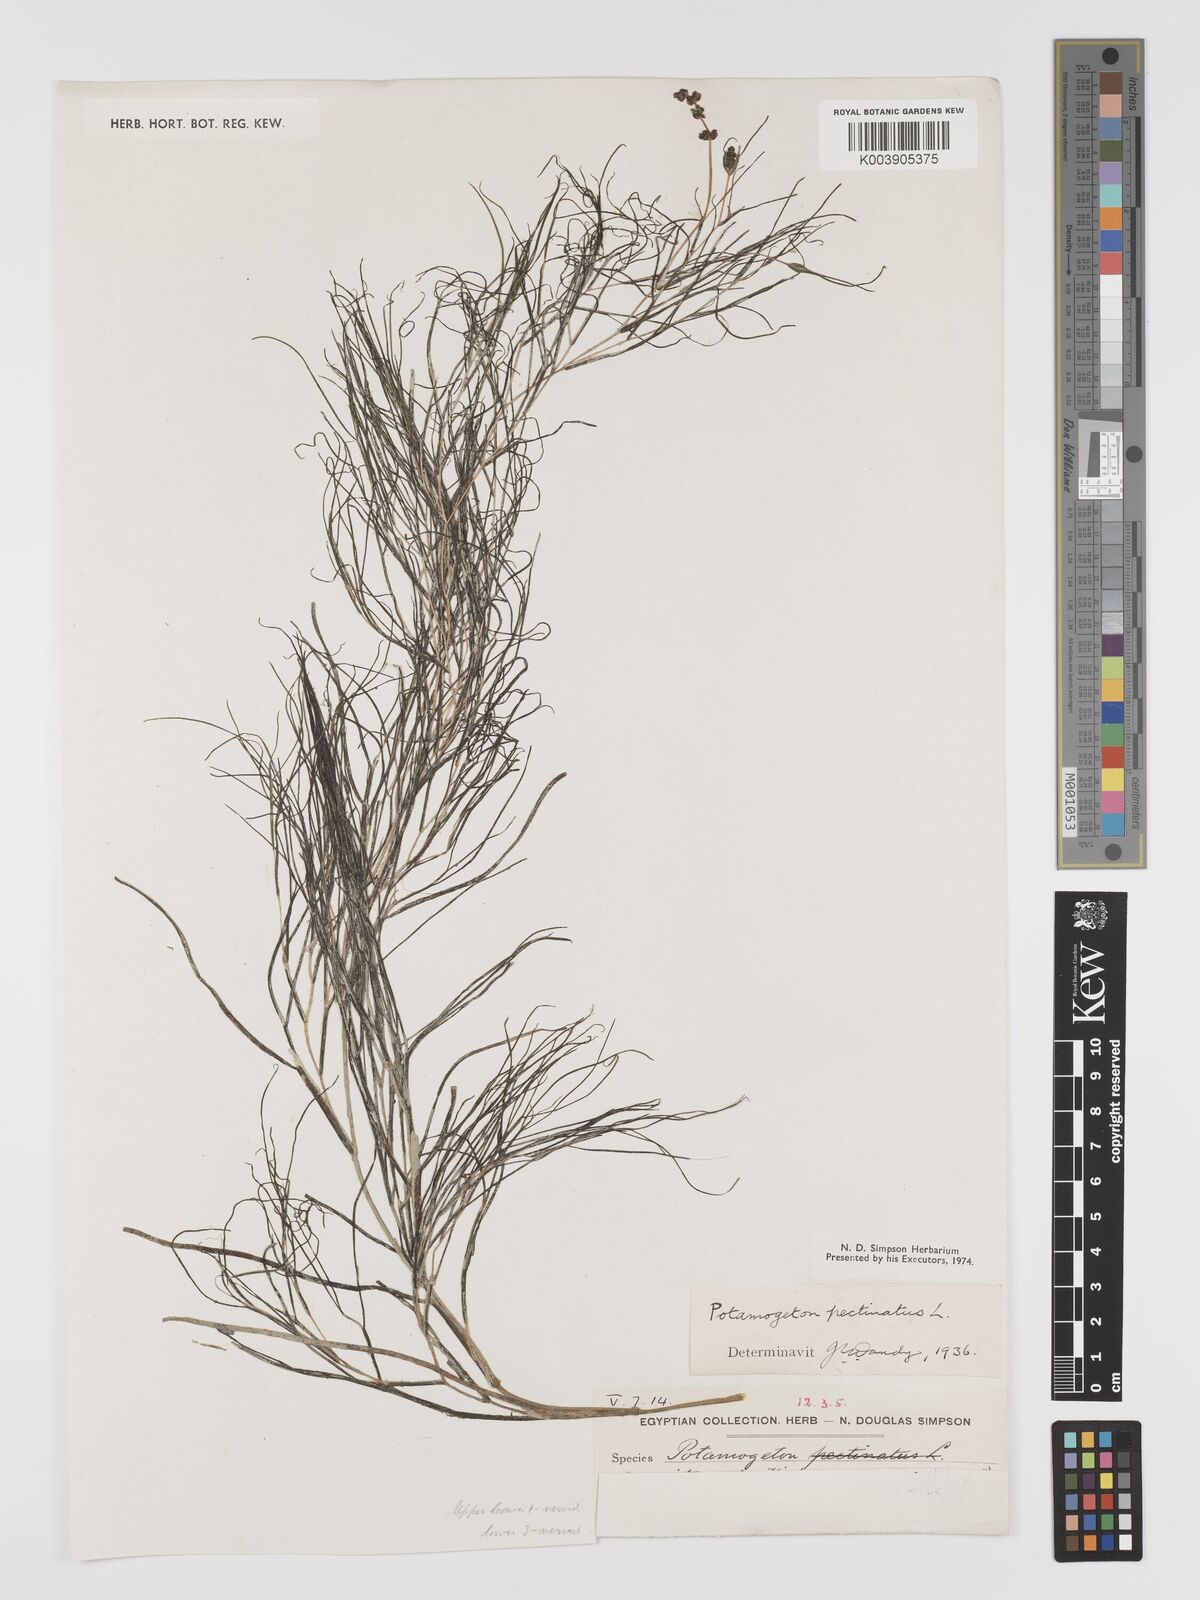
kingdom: Plantae
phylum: Tracheophyta
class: Liliopsida
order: Alismatales
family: Potamogetonaceae
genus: Stuckenia
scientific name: Stuckenia pectinata
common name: Sago pondweed
